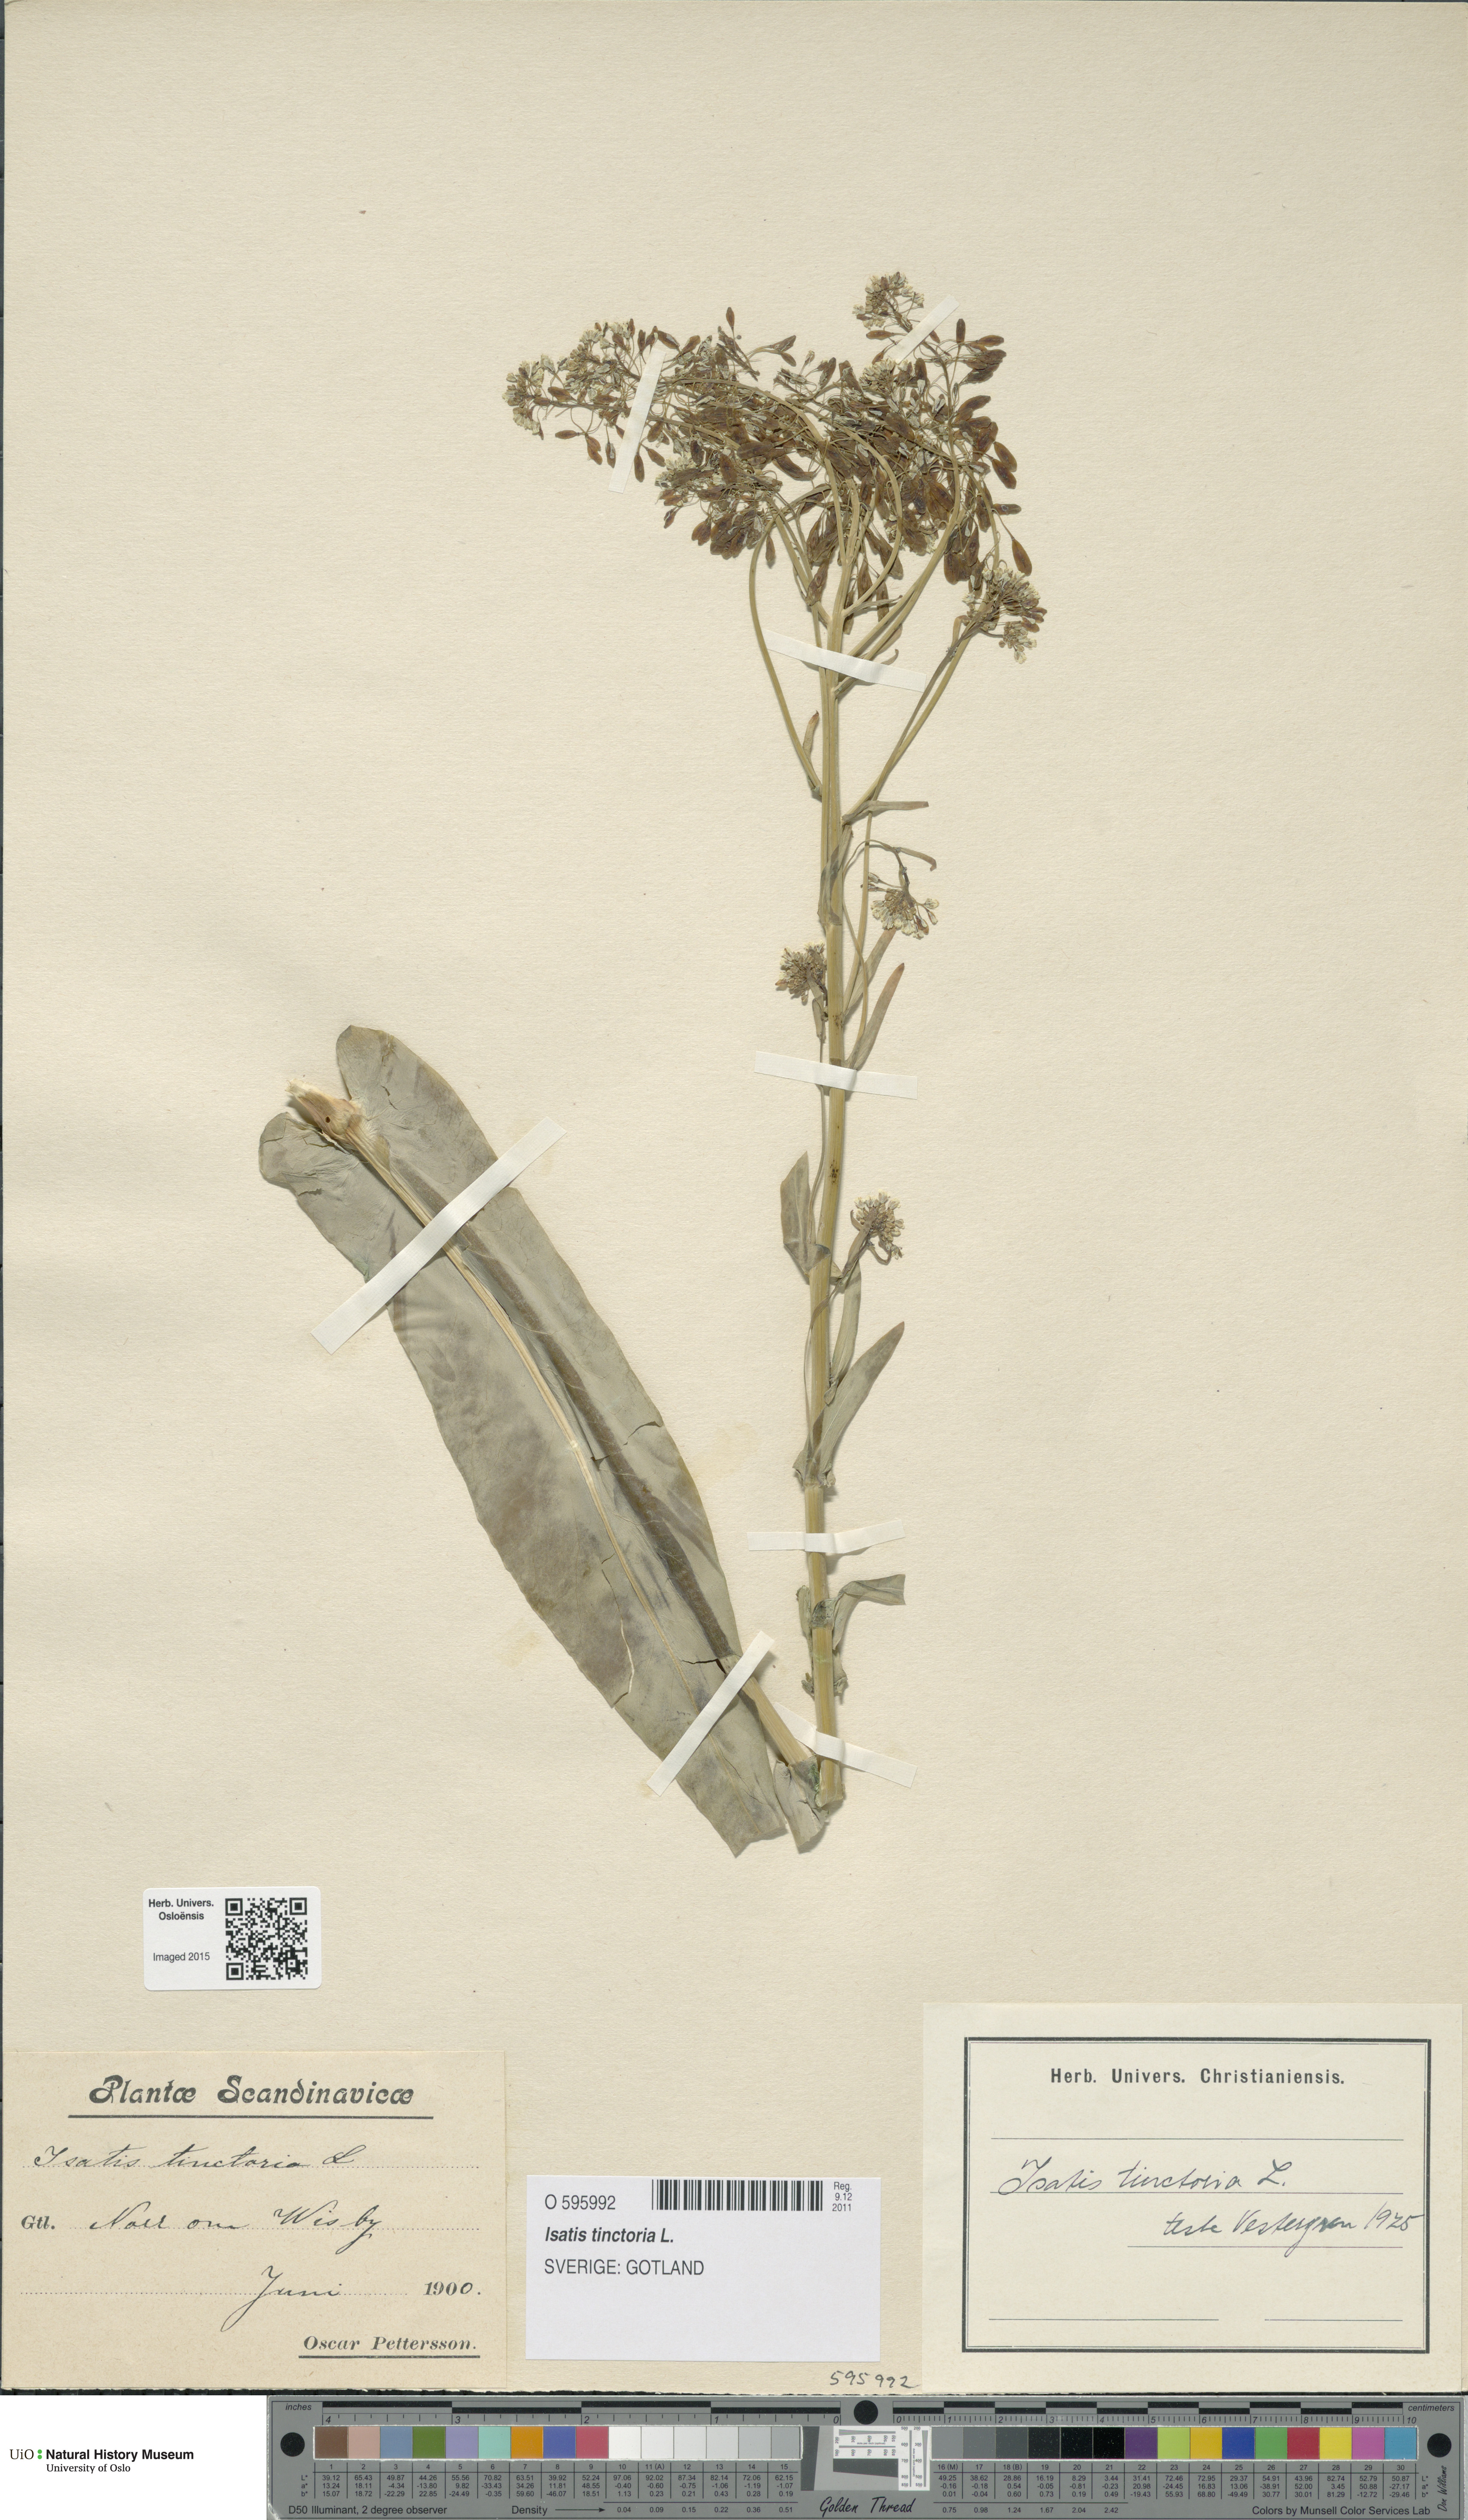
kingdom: Plantae
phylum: Tracheophyta
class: Magnoliopsida
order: Brassicales
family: Brassicaceae
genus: Isatis
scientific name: Isatis tinctoria
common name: Woad
